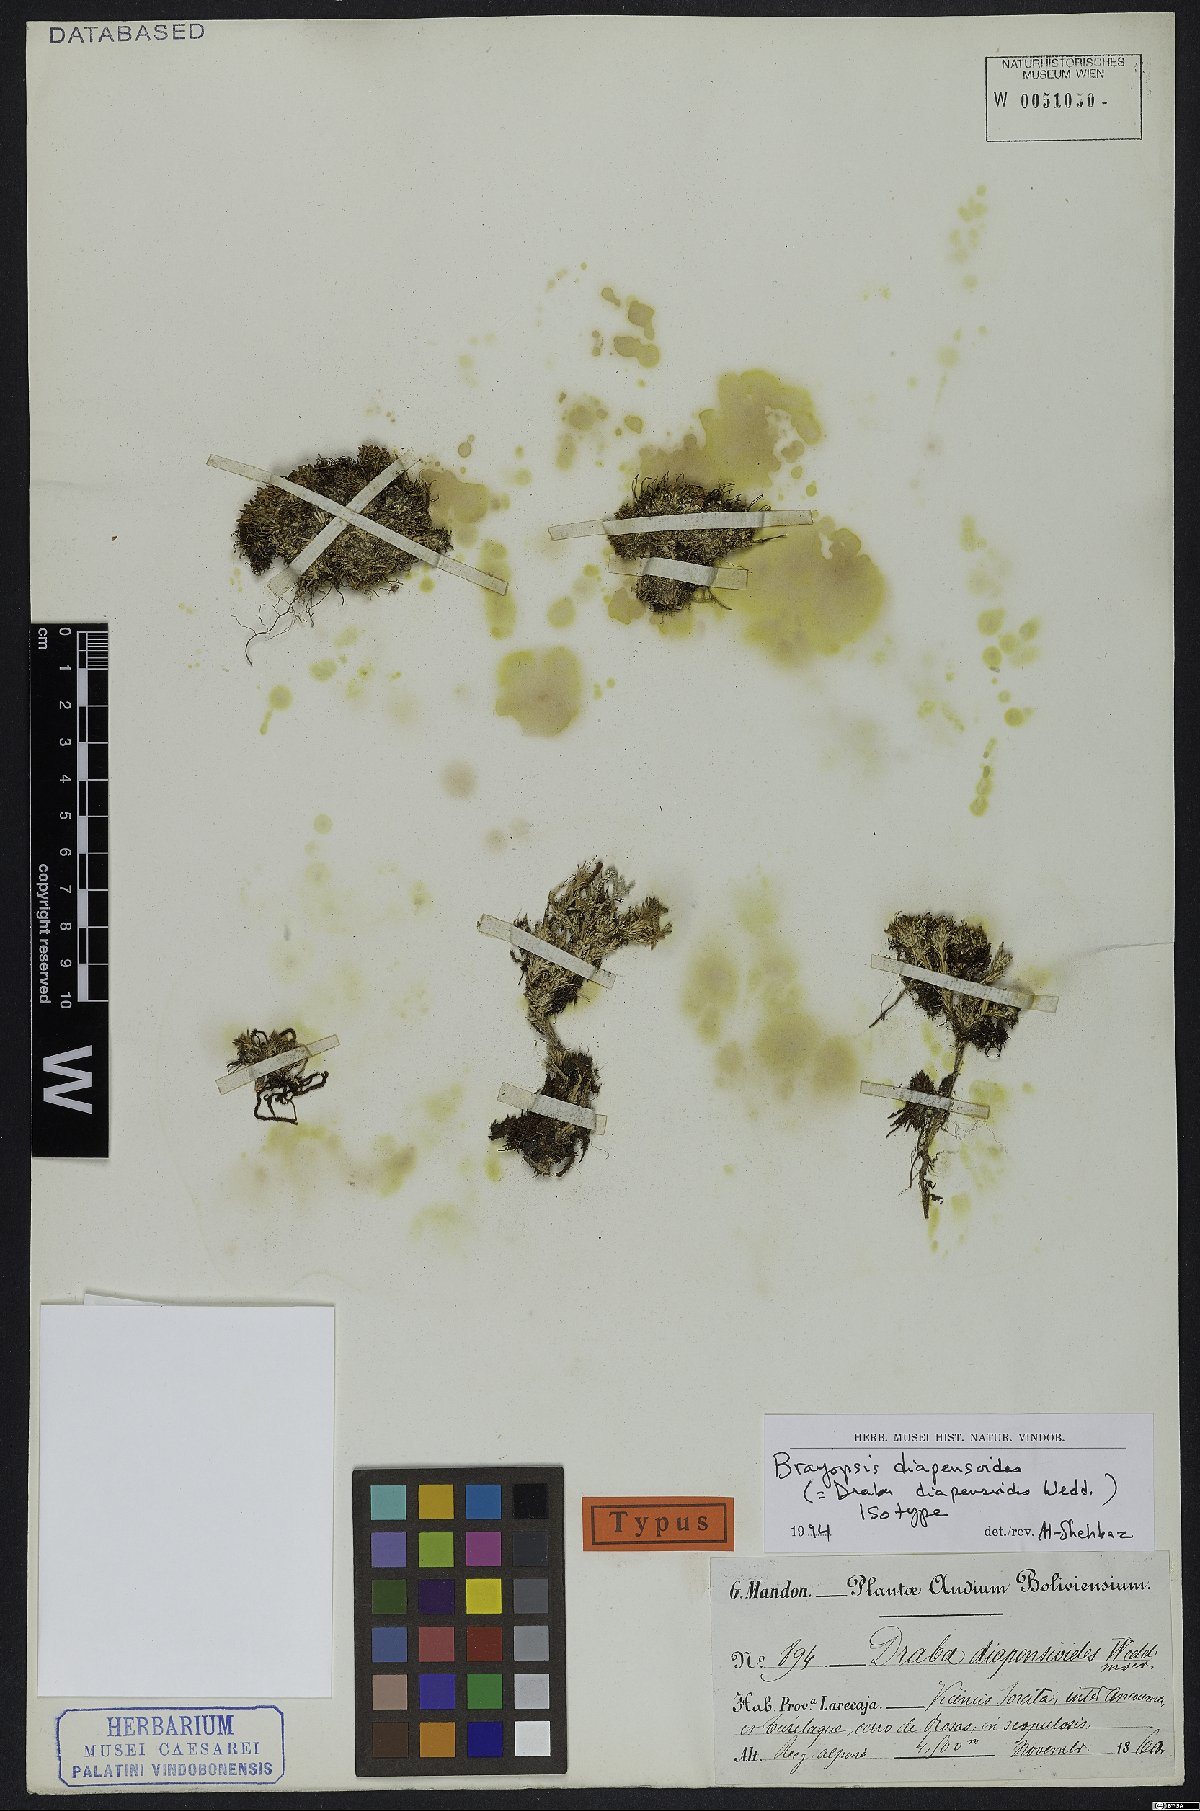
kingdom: Plantae
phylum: Tracheophyta
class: Magnoliopsida
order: Brassicales
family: Brassicaceae
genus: Brayopsis
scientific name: Brayopsis diapensioides
